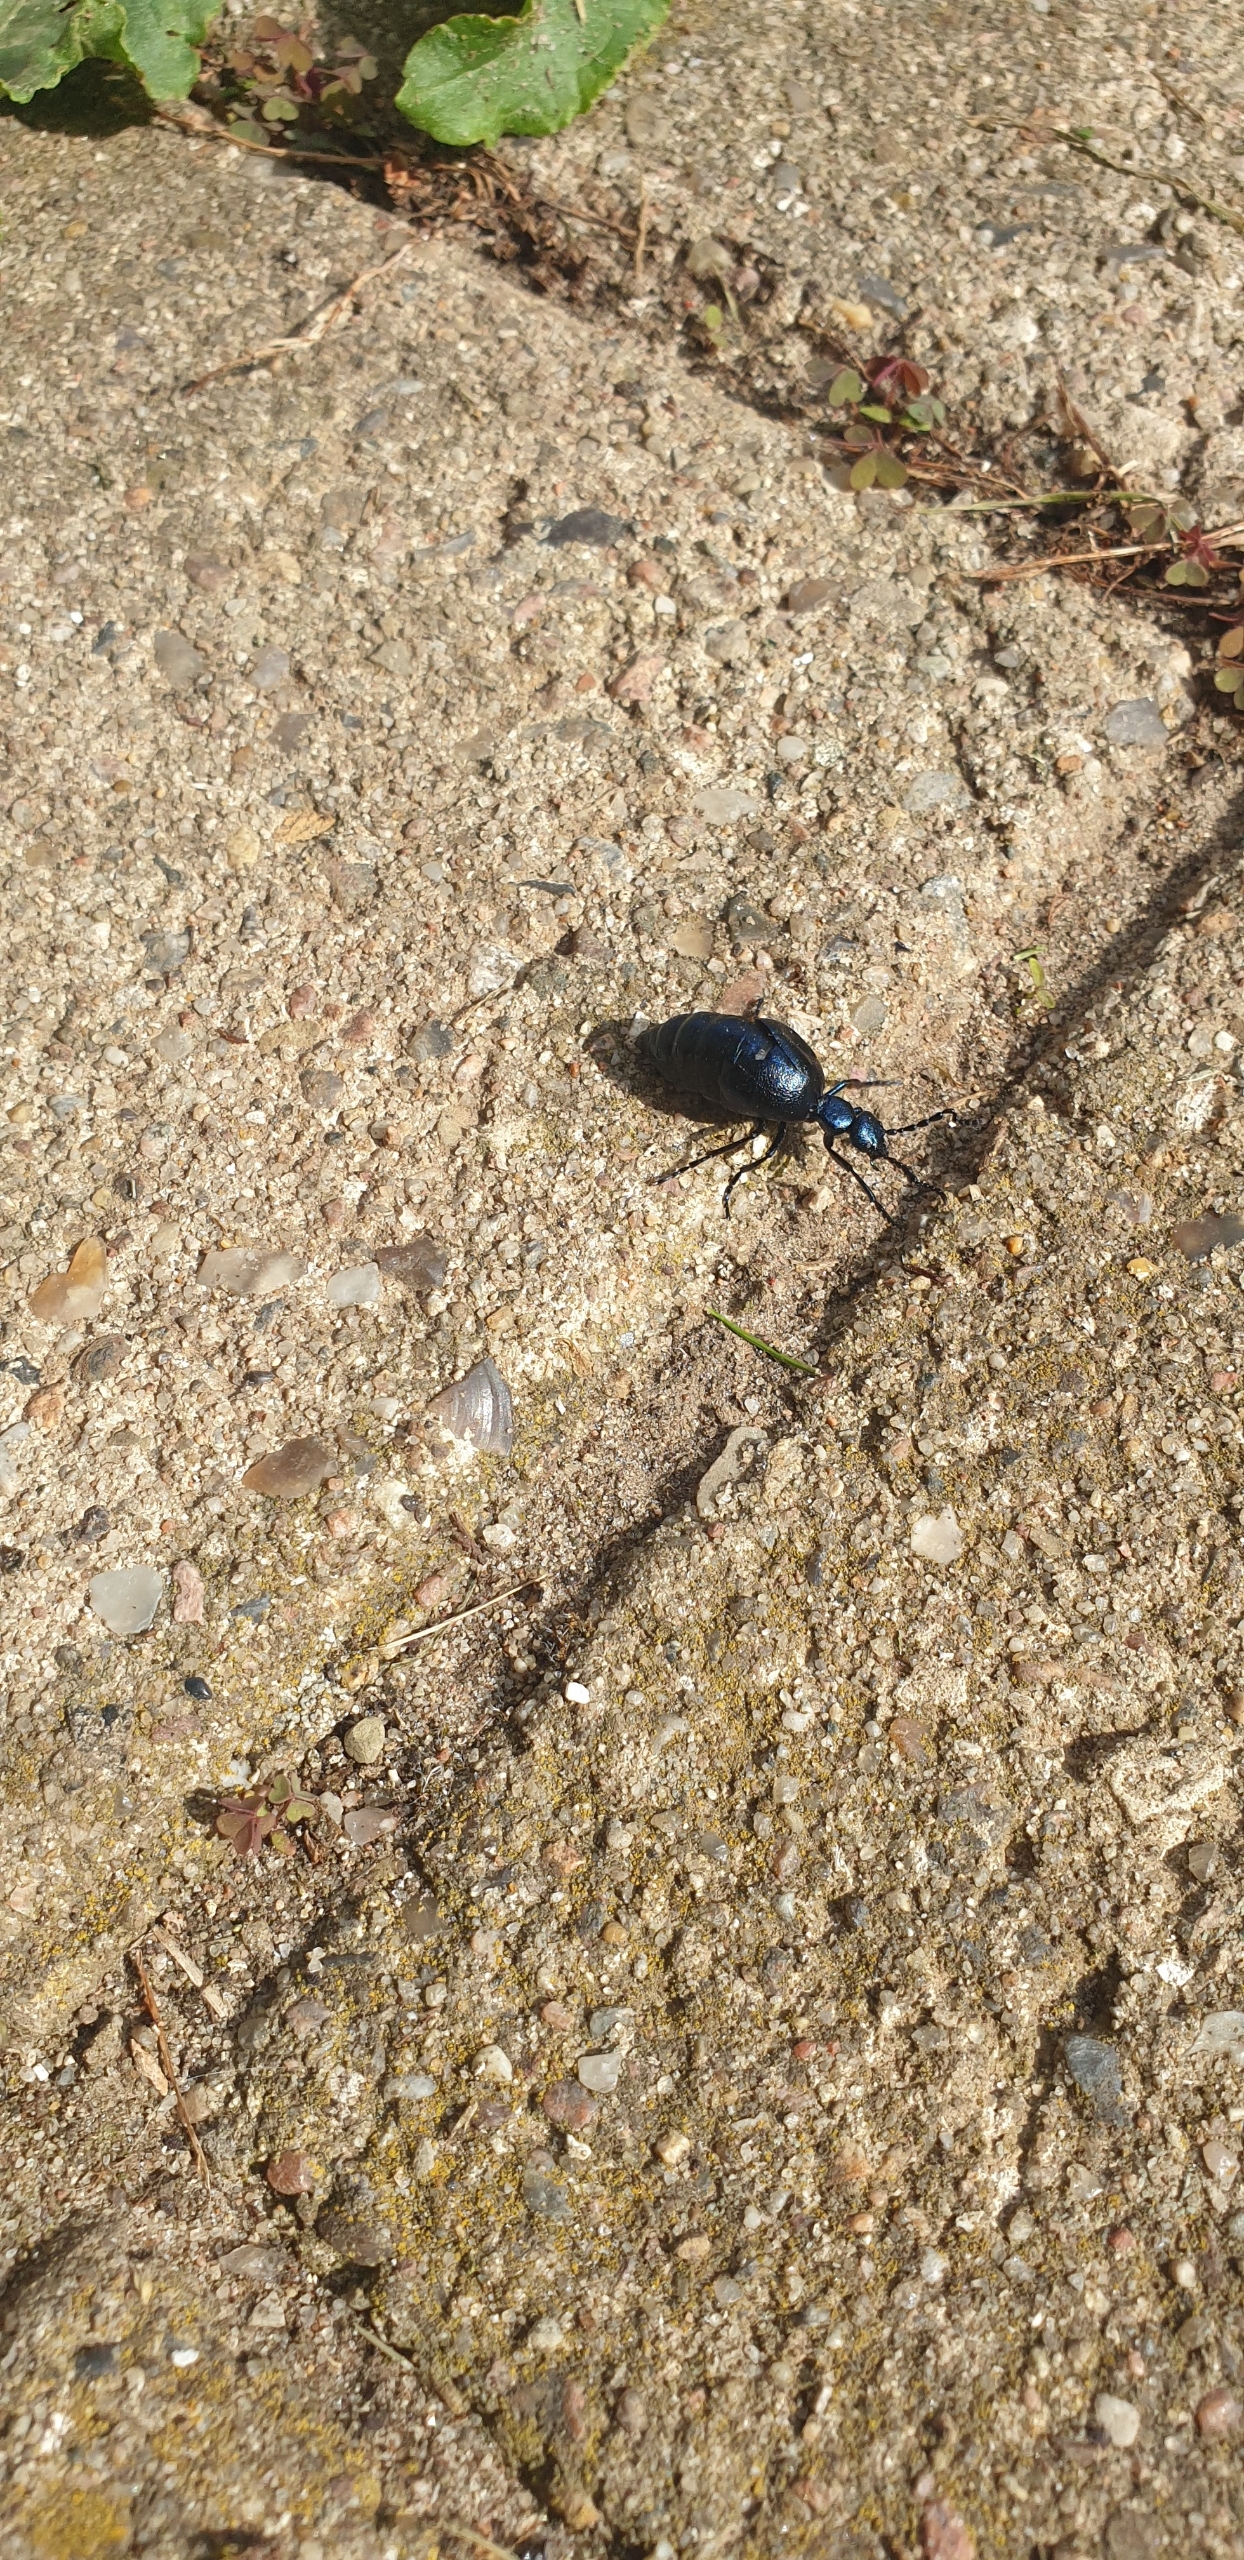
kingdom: Animalia
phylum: Arthropoda
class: Insecta
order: Coleoptera
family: Meloidae
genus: Meloe
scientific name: Meloe violaceus
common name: Blå oliebille
